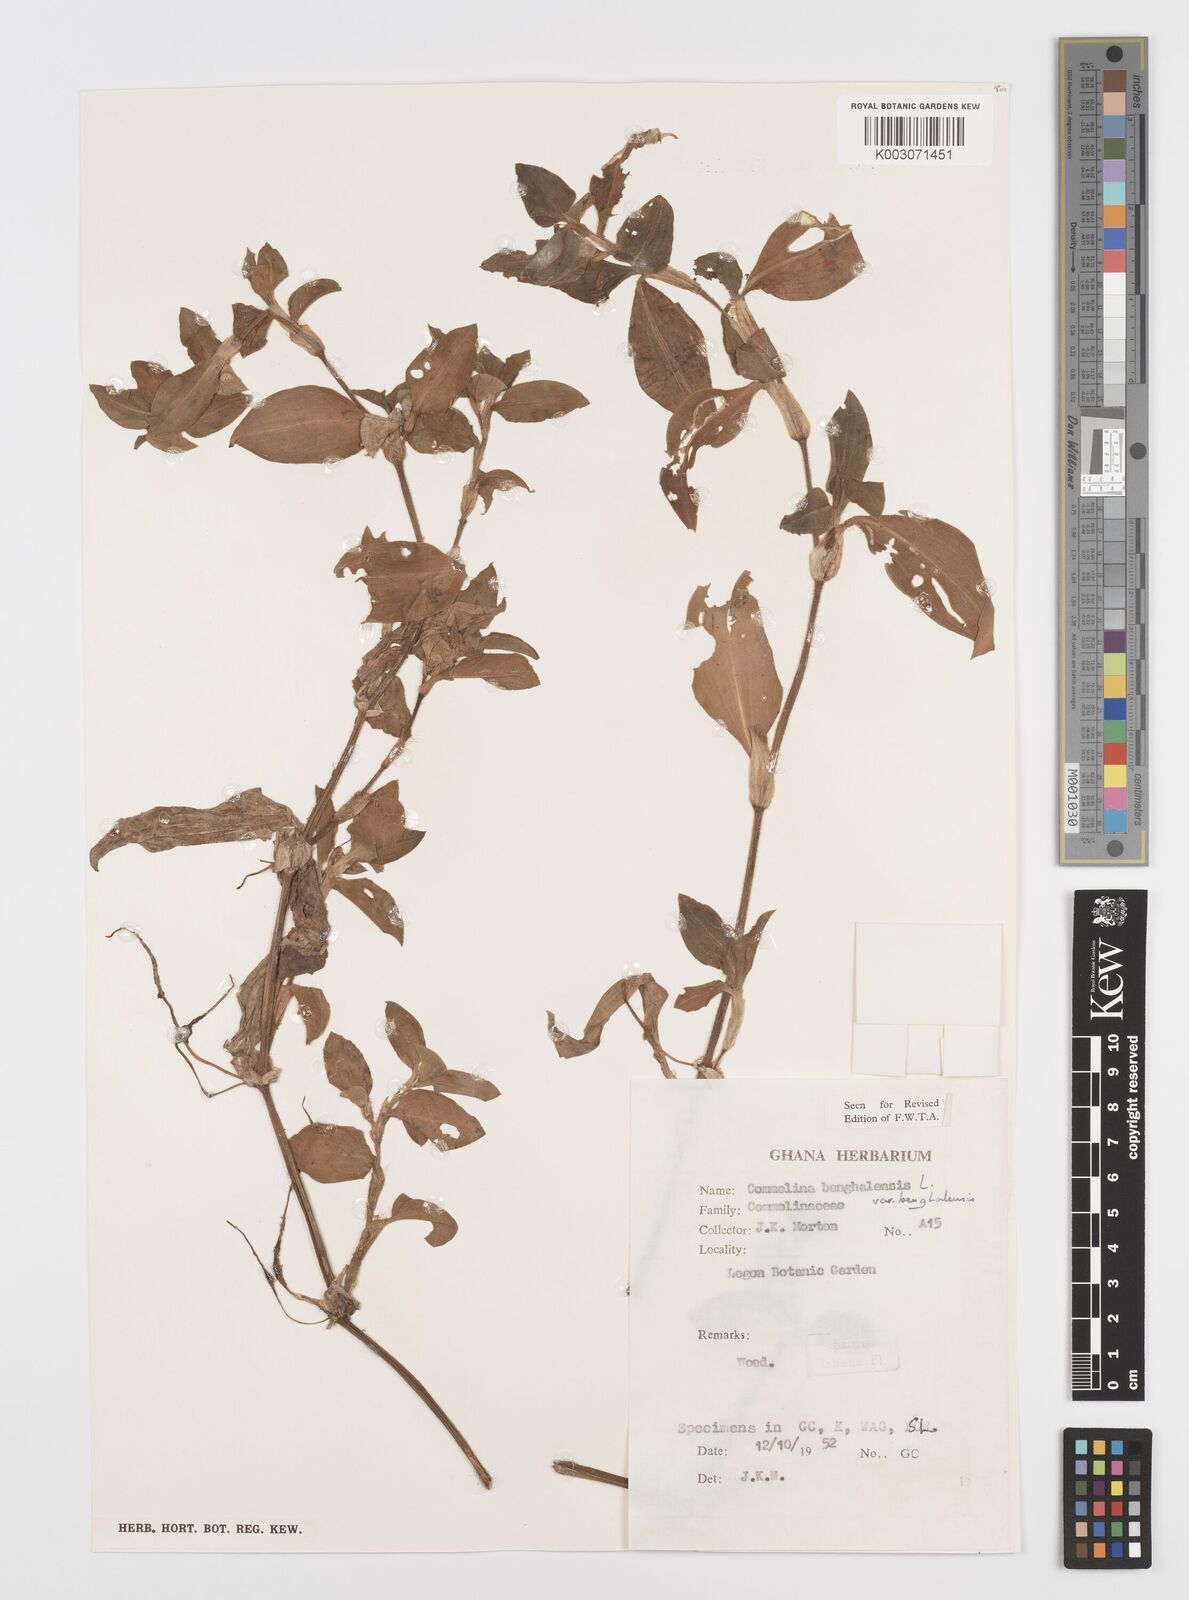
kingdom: Plantae
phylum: Tracheophyta
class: Liliopsida
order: Commelinales
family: Commelinaceae
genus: Commelina
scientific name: Commelina benghalensis
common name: Jio
